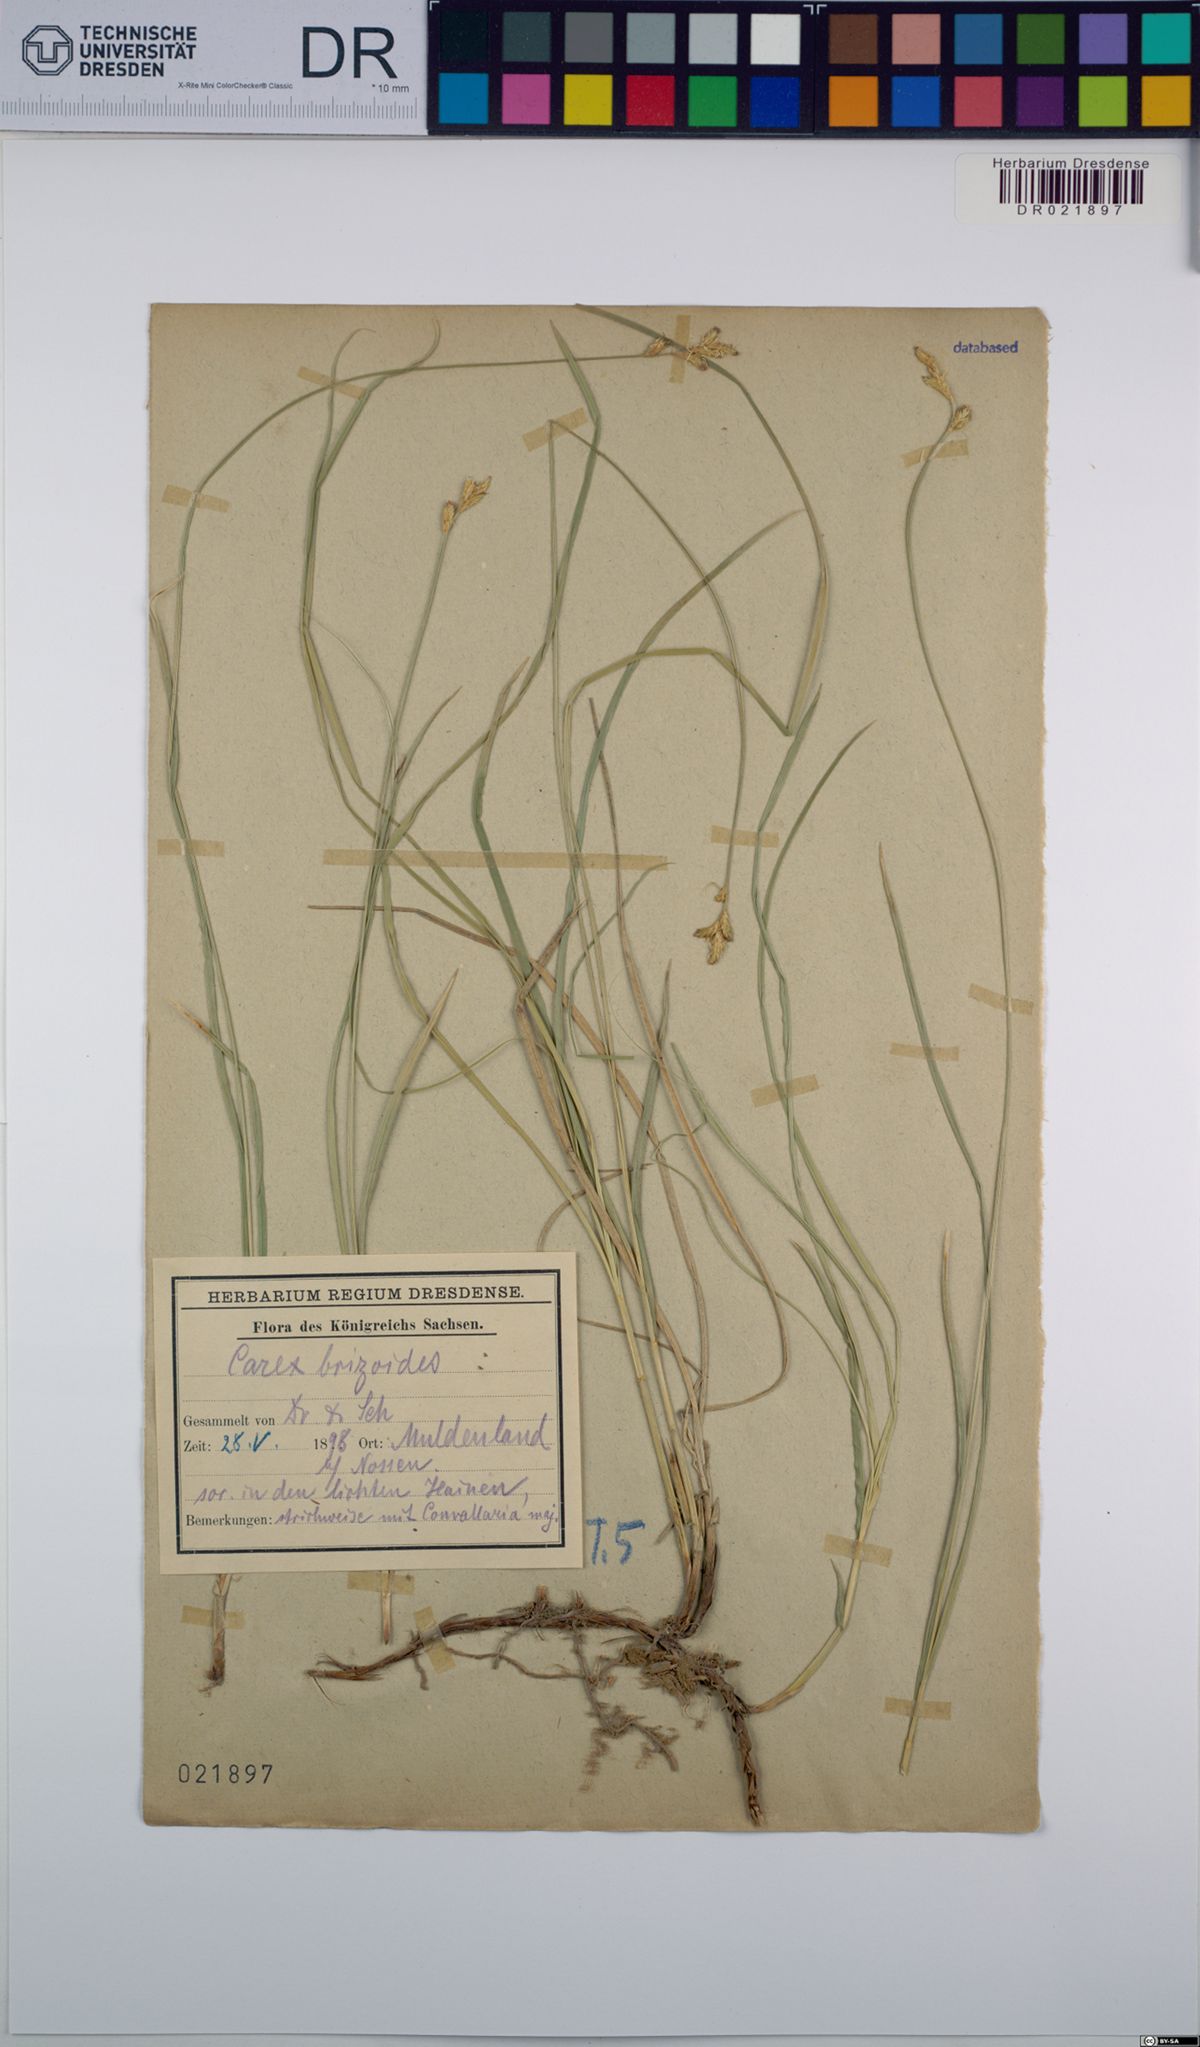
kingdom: Plantae
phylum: Tracheophyta
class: Liliopsida
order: Poales
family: Cyperaceae
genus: Carex
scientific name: Carex brizoides
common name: Quaking-grass sedge
